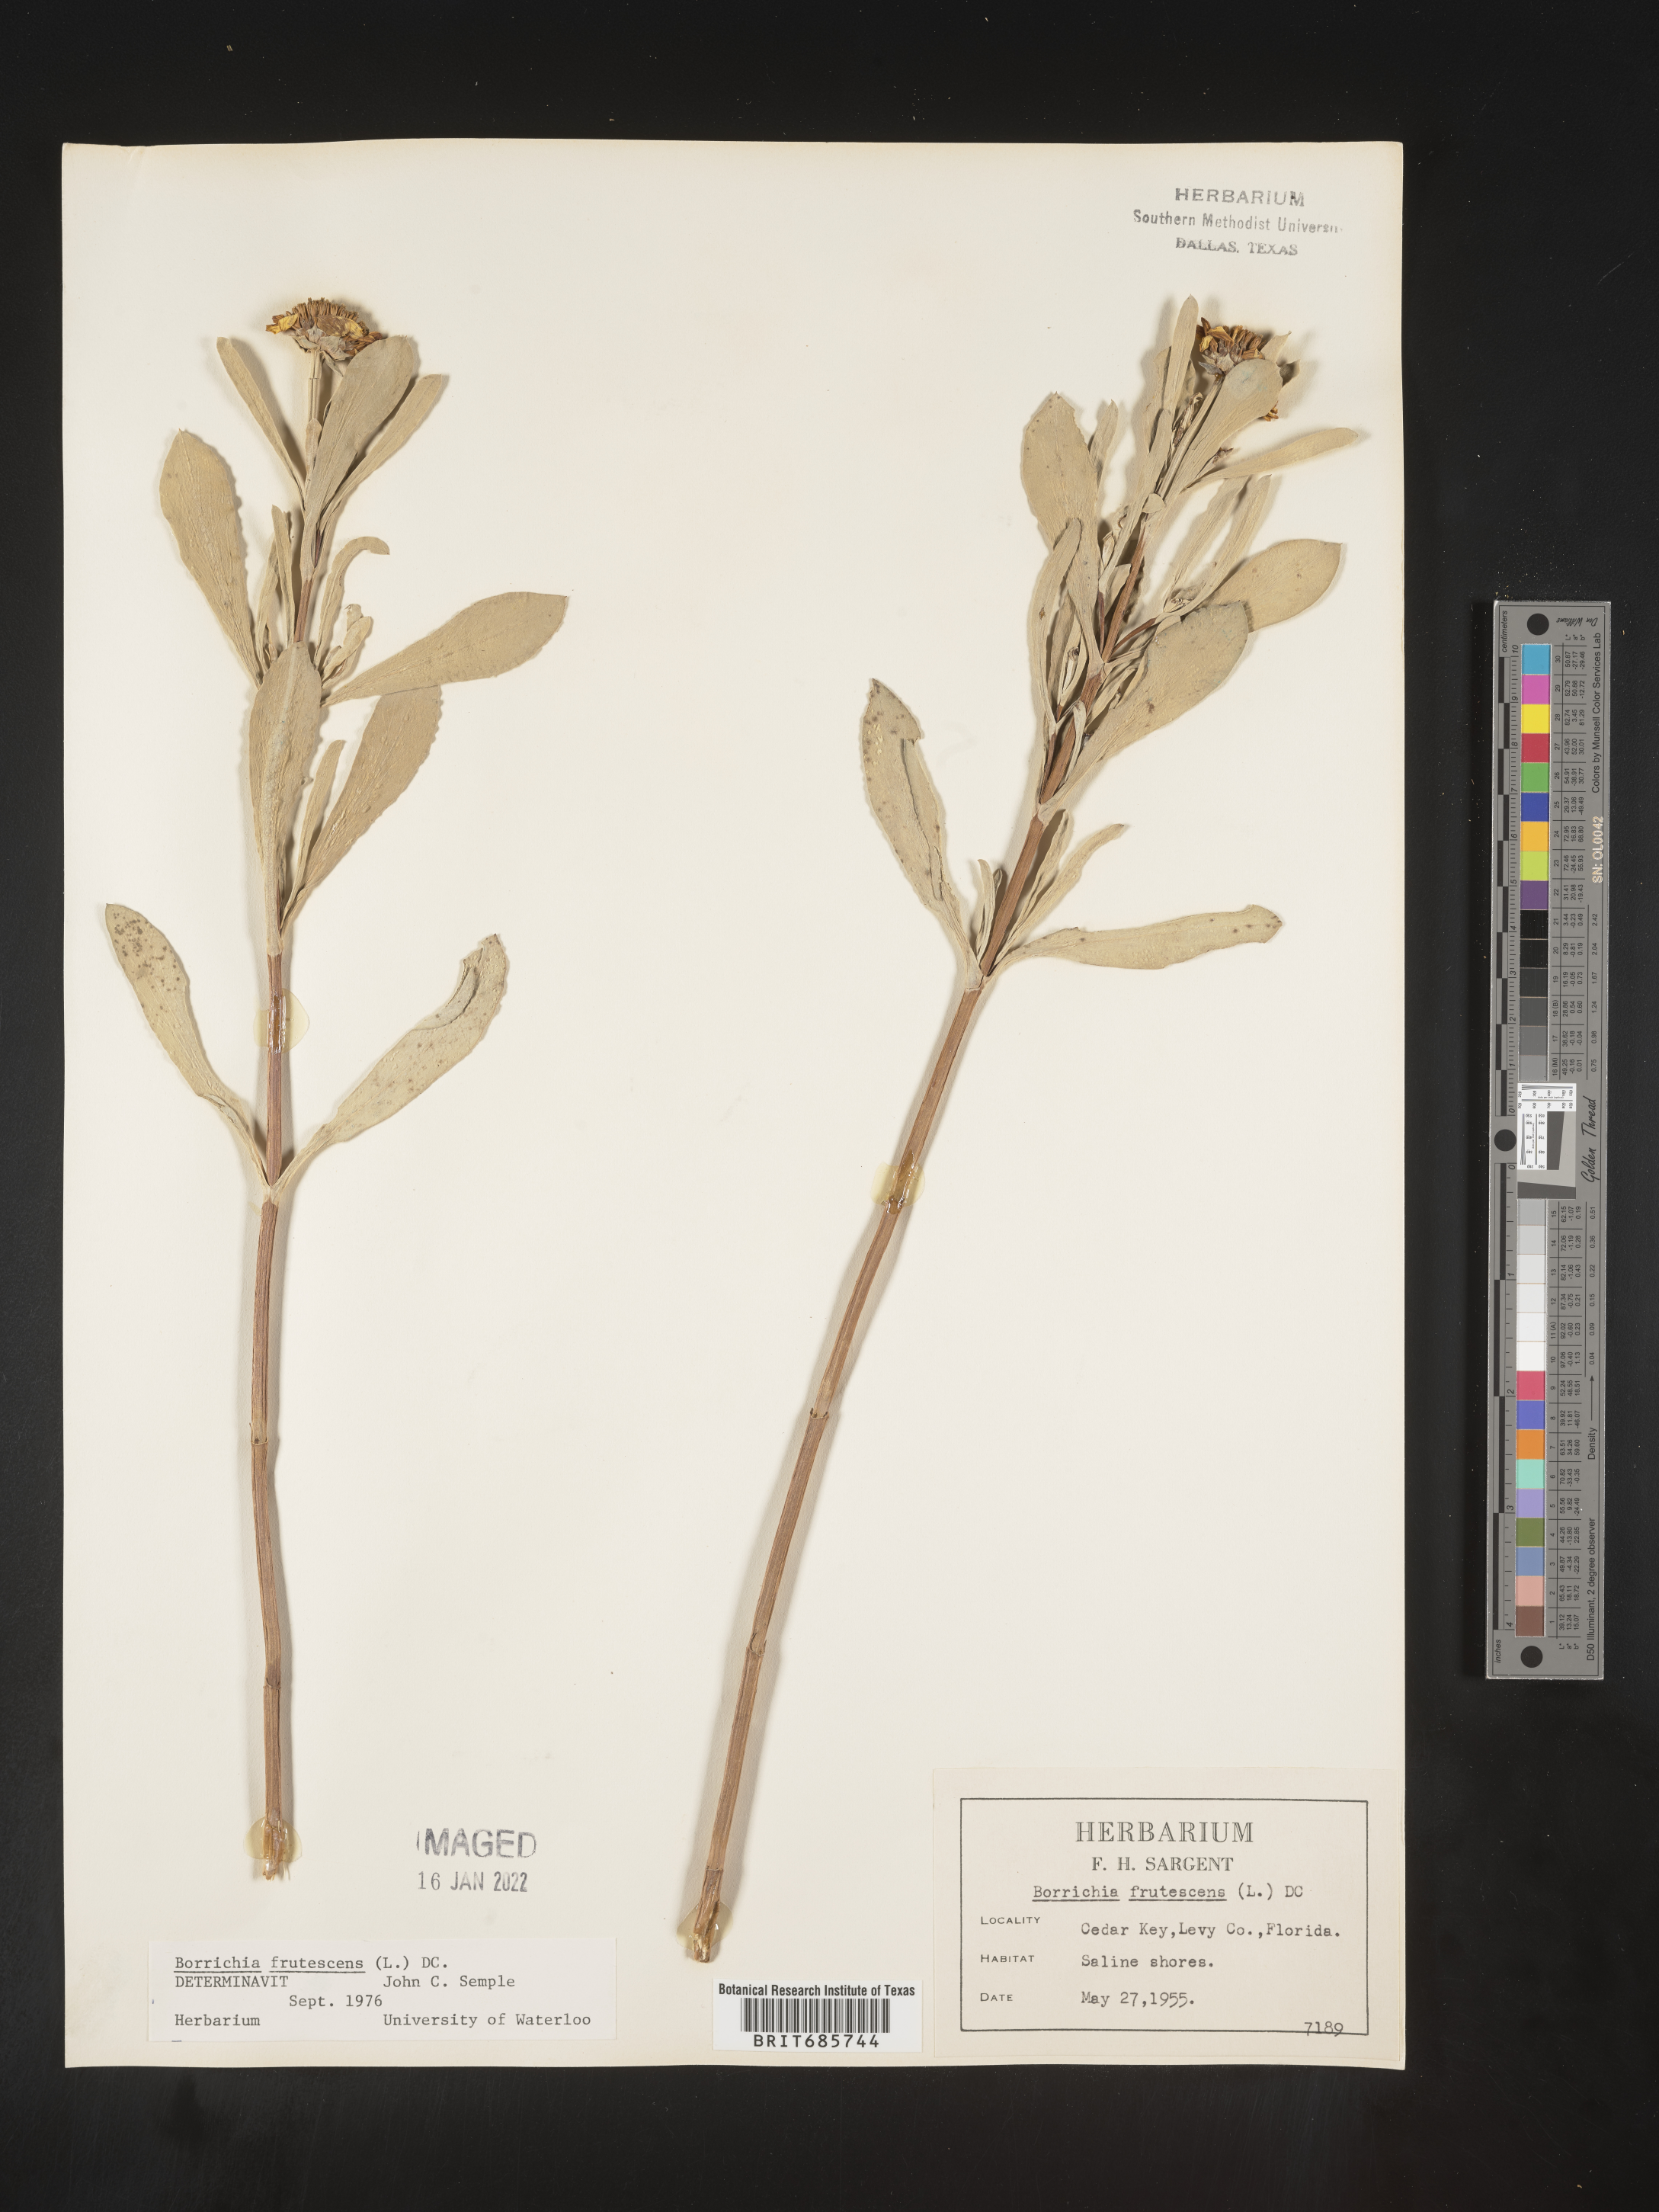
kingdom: Plantae
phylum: Tracheophyta
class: Magnoliopsida
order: Asterales
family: Asteraceae
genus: Borrichia
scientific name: Borrichia frutescens
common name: Sea oxeye
